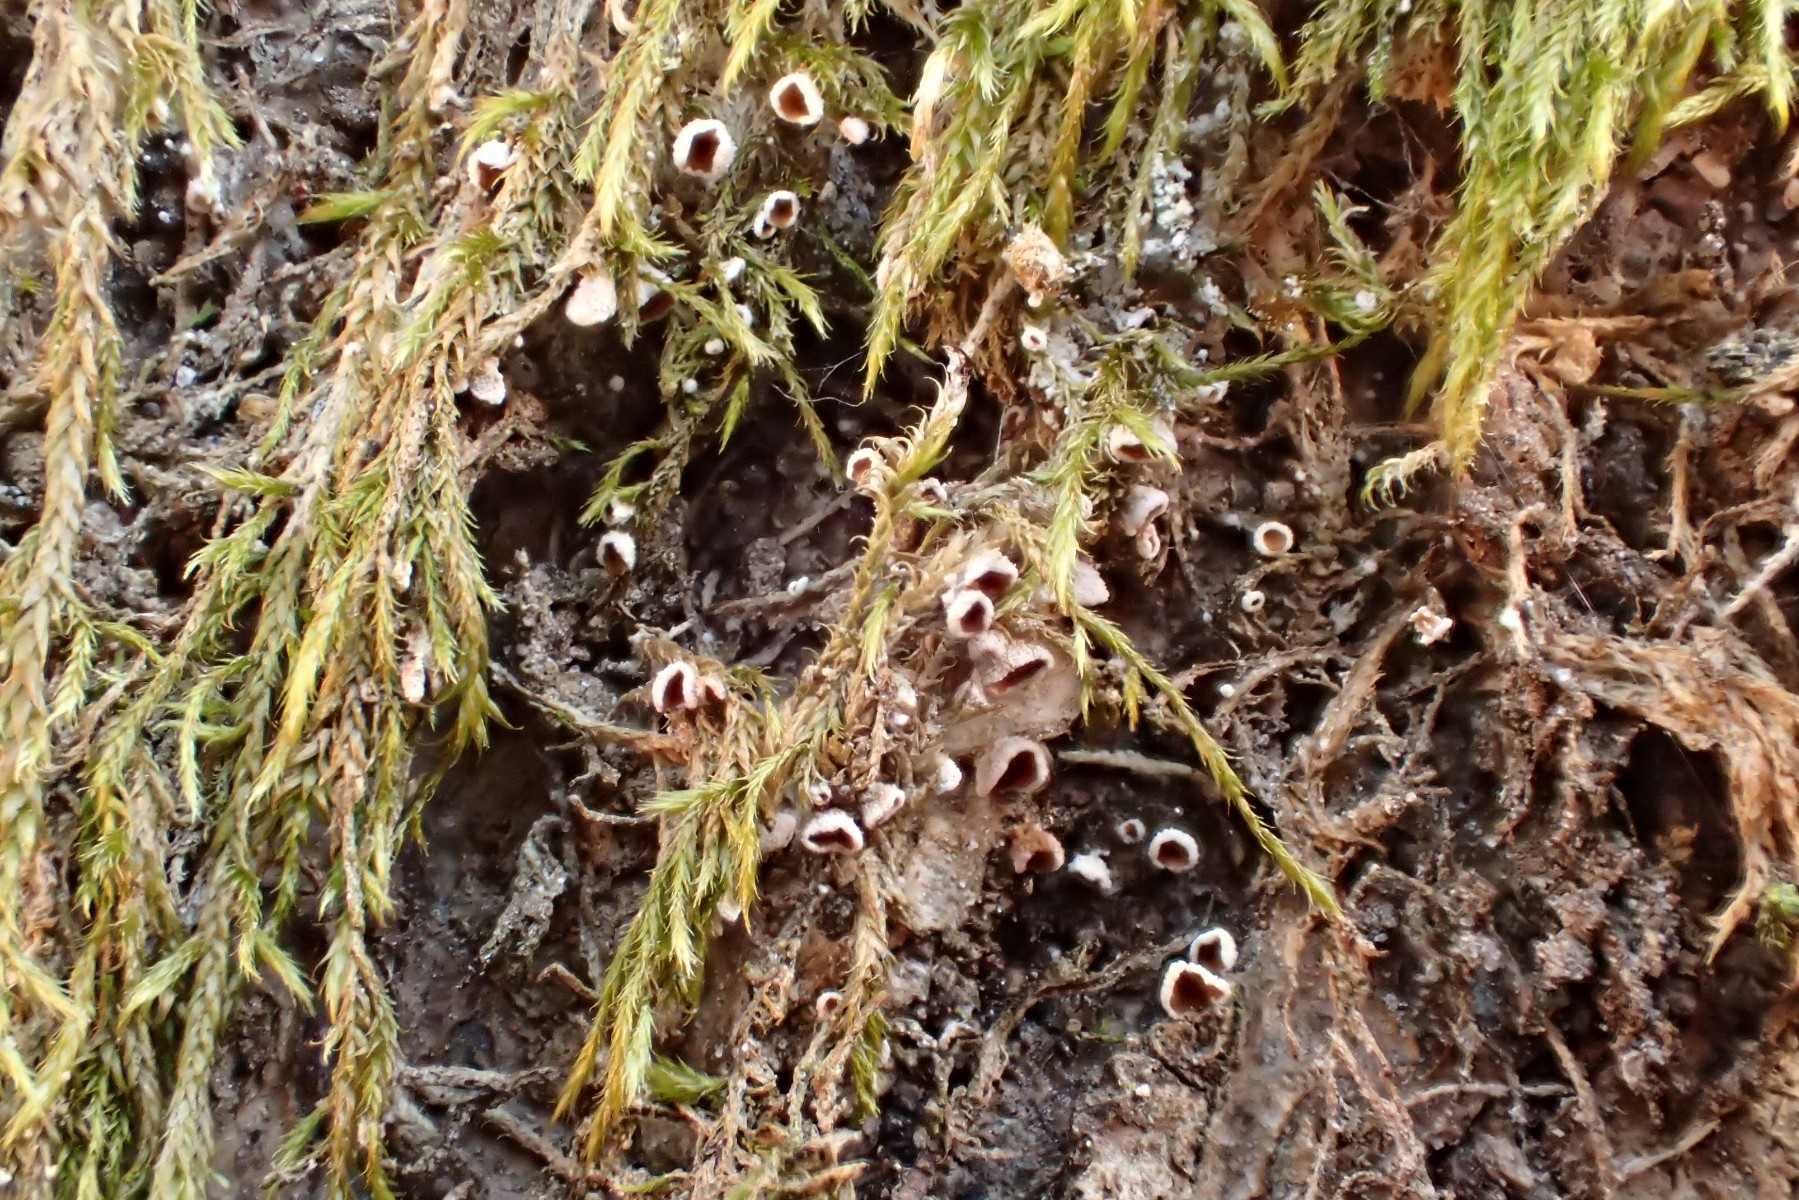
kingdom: Fungi
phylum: Basidiomycota
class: Agaricomycetes
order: Agaricales
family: Chromocyphellaceae
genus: Chromocyphella
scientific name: Chromocyphella muscicola
